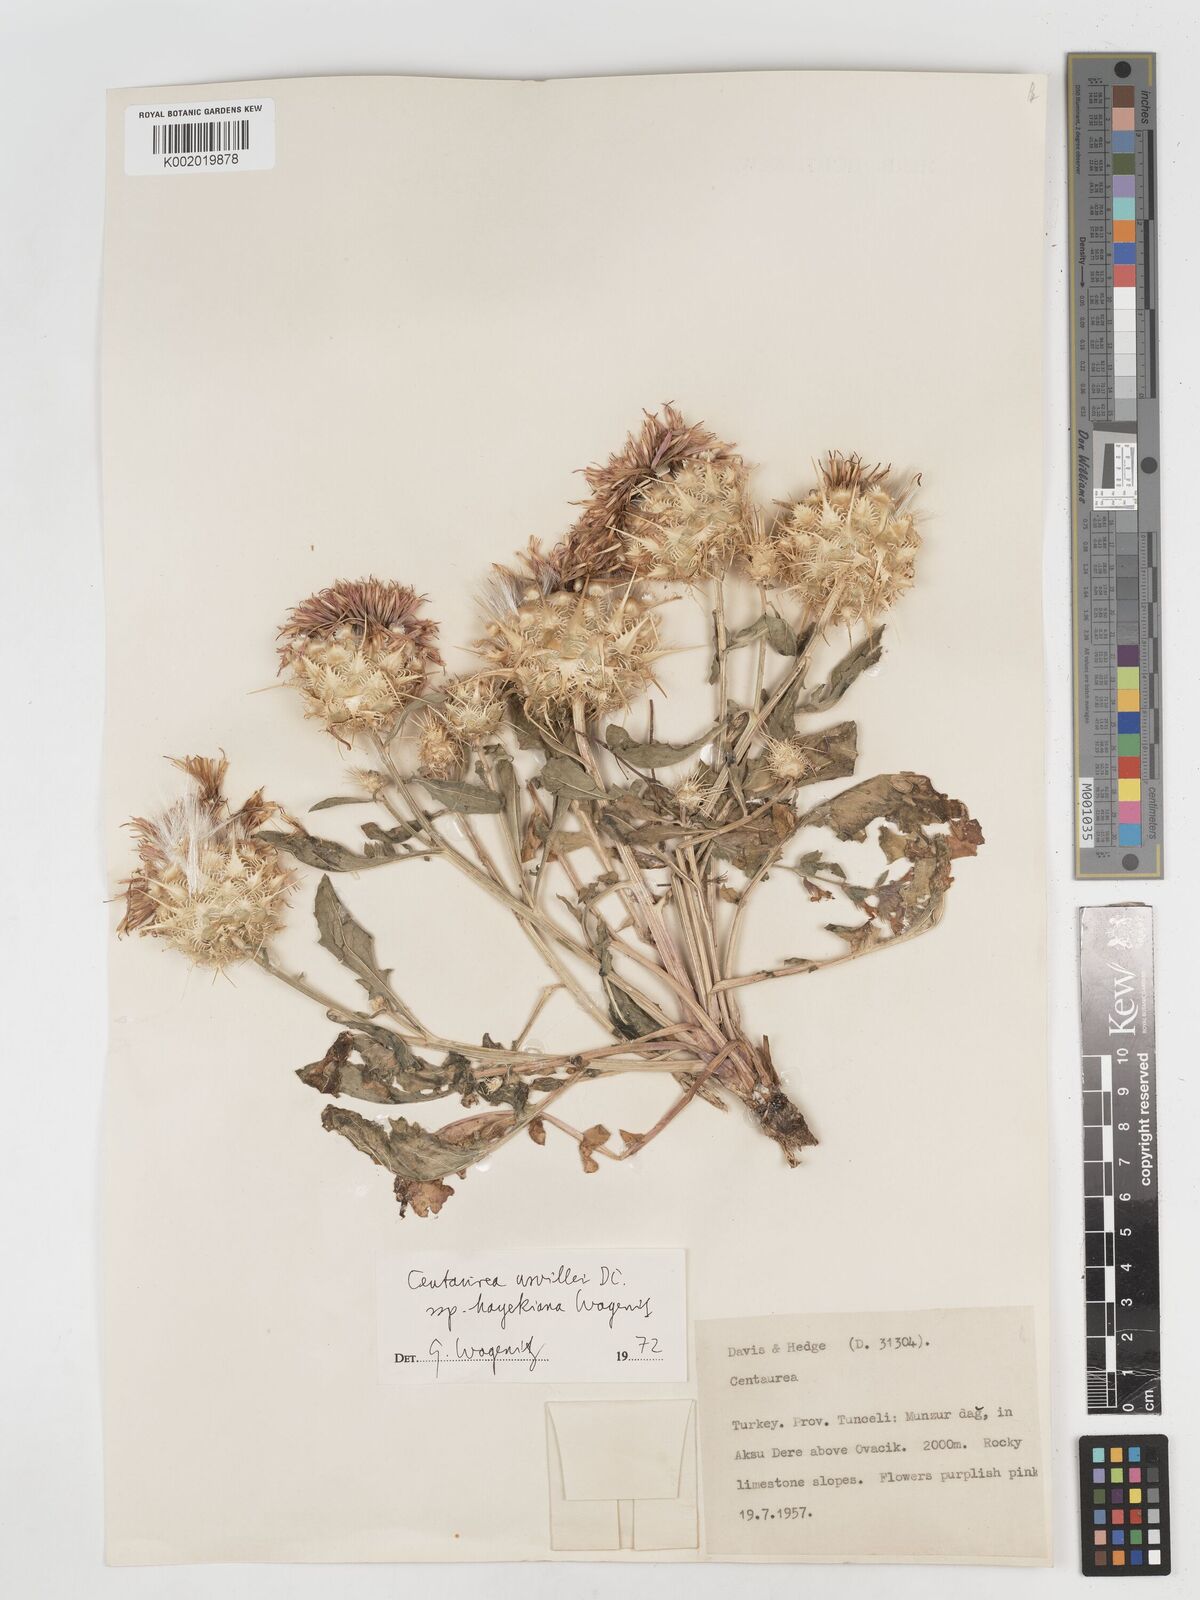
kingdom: Plantae
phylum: Tracheophyta
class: Magnoliopsida
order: Asterales
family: Asteraceae
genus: Centaurea
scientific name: Centaurea urvillei
